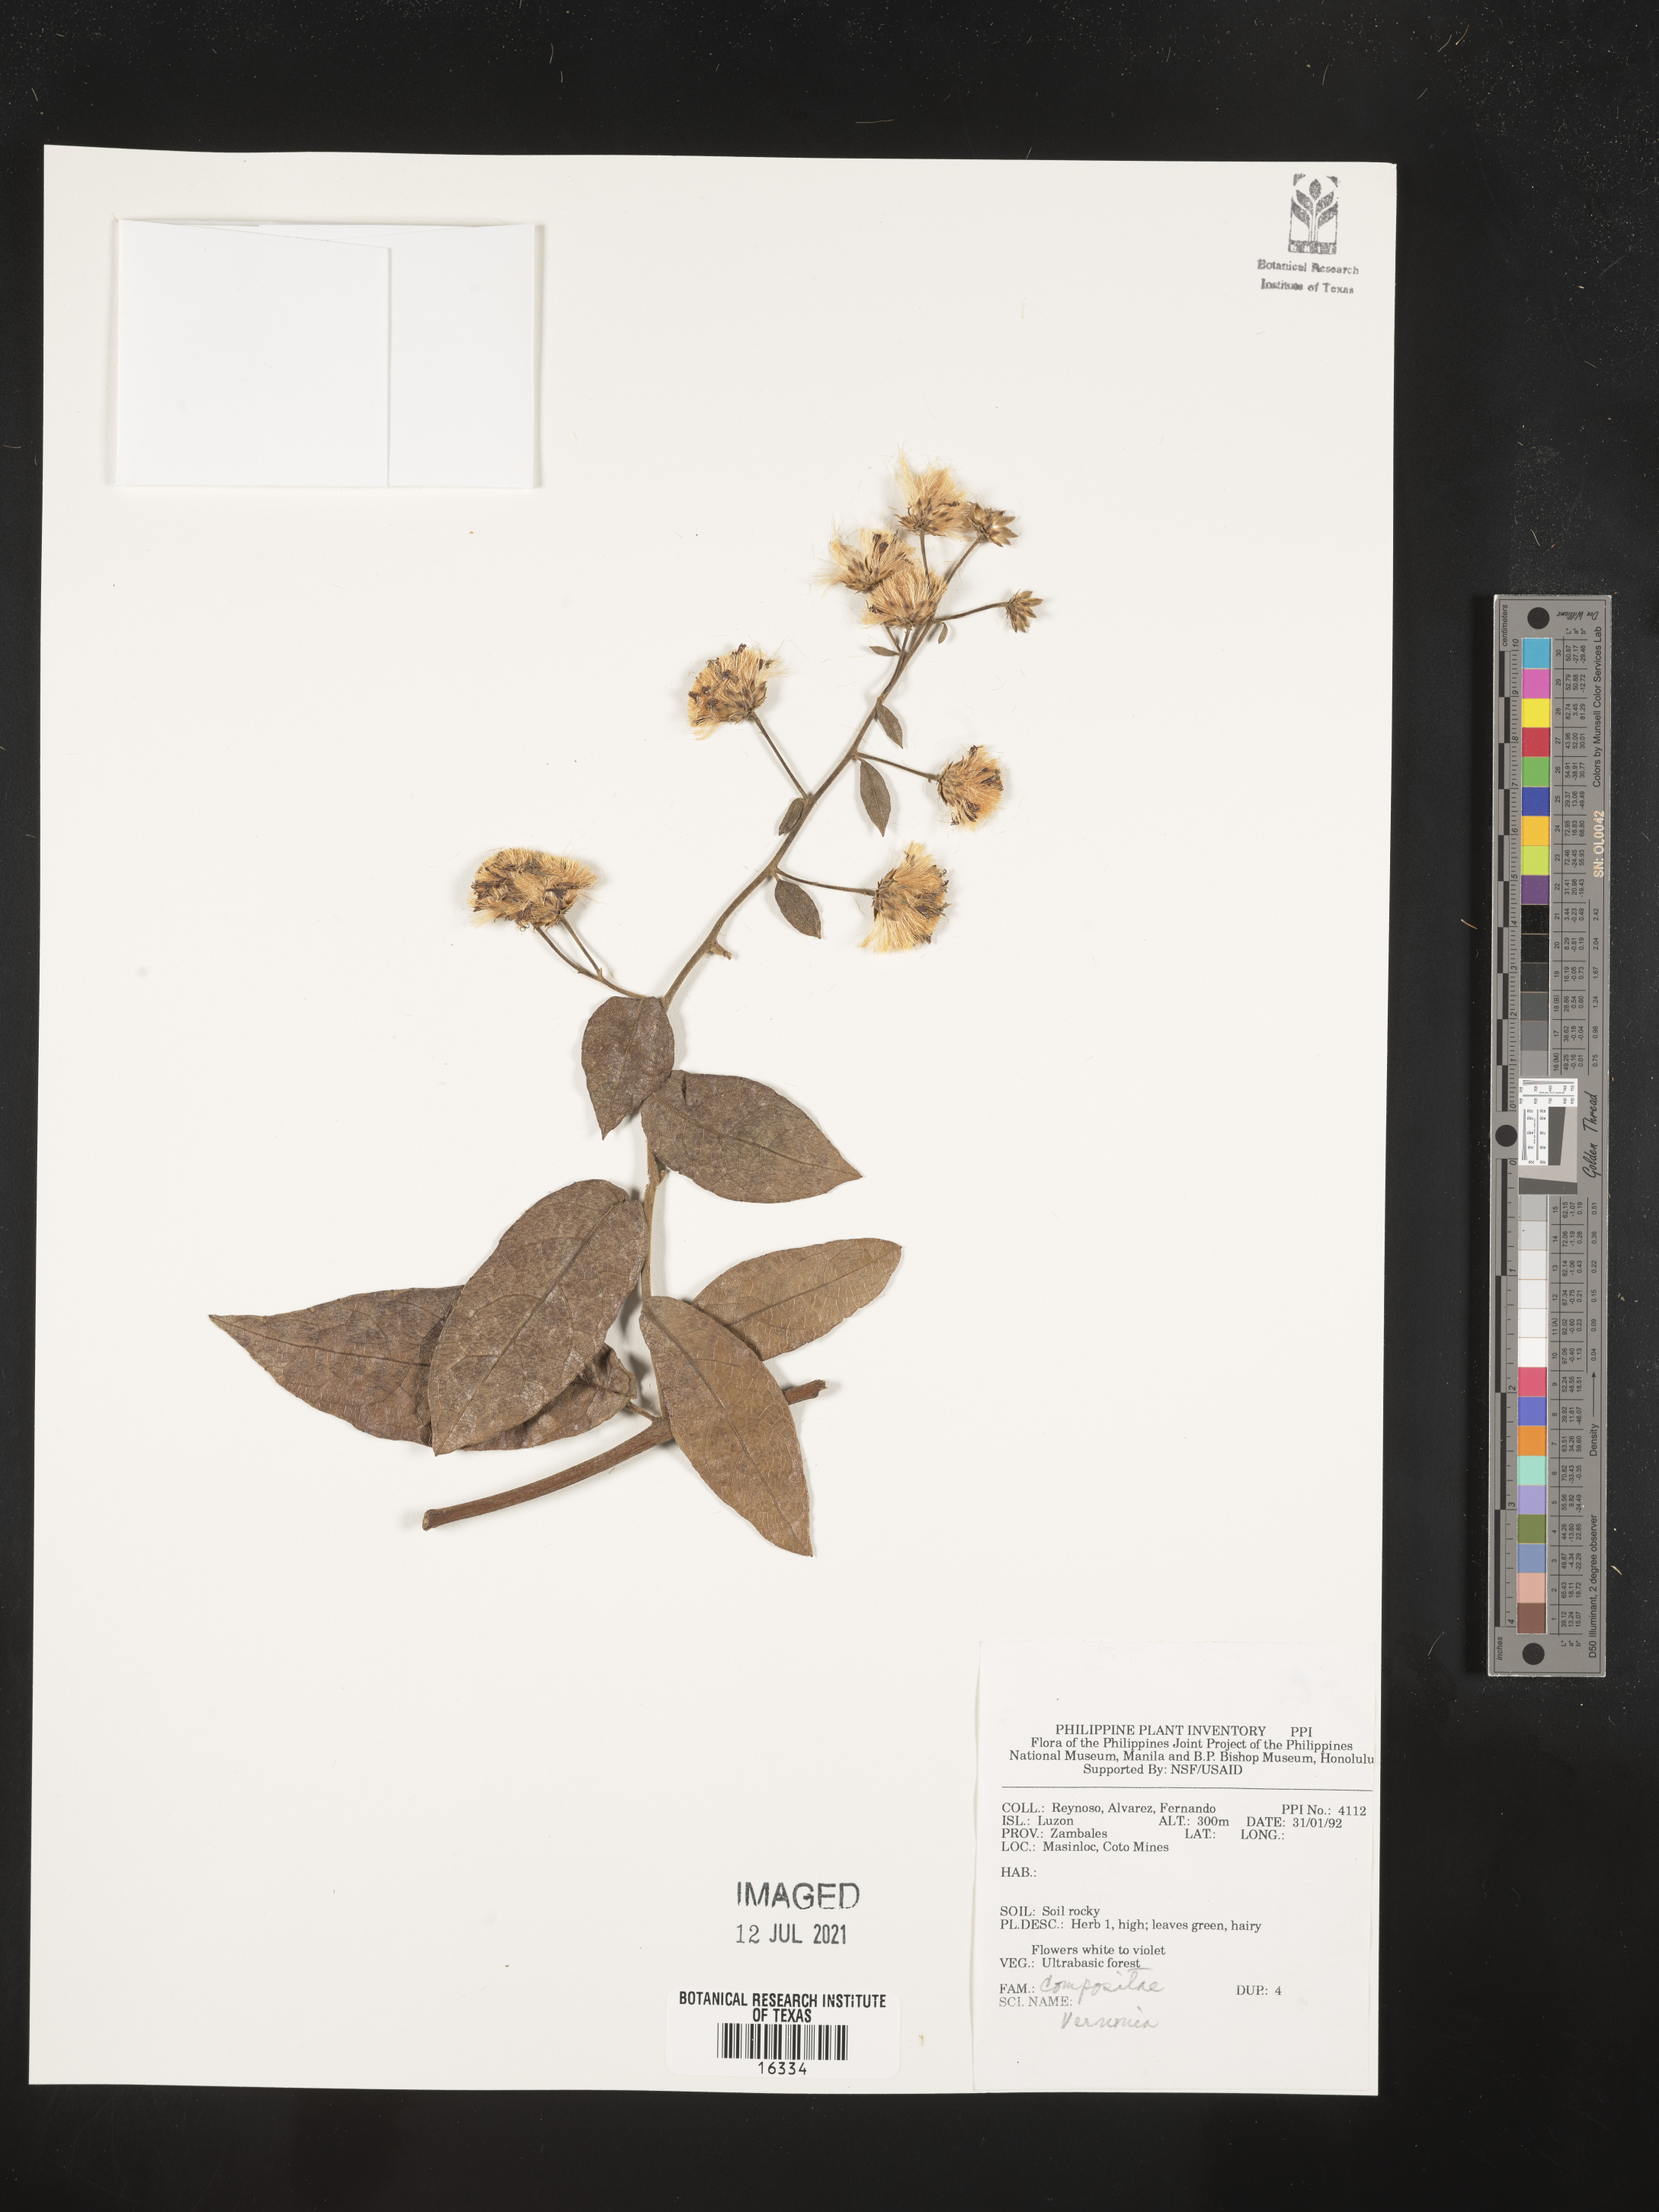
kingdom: Plantae
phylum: Tracheophyta
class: Magnoliopsida
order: Asterales
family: Asteraceae
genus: Vernonia
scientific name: Vernonia
